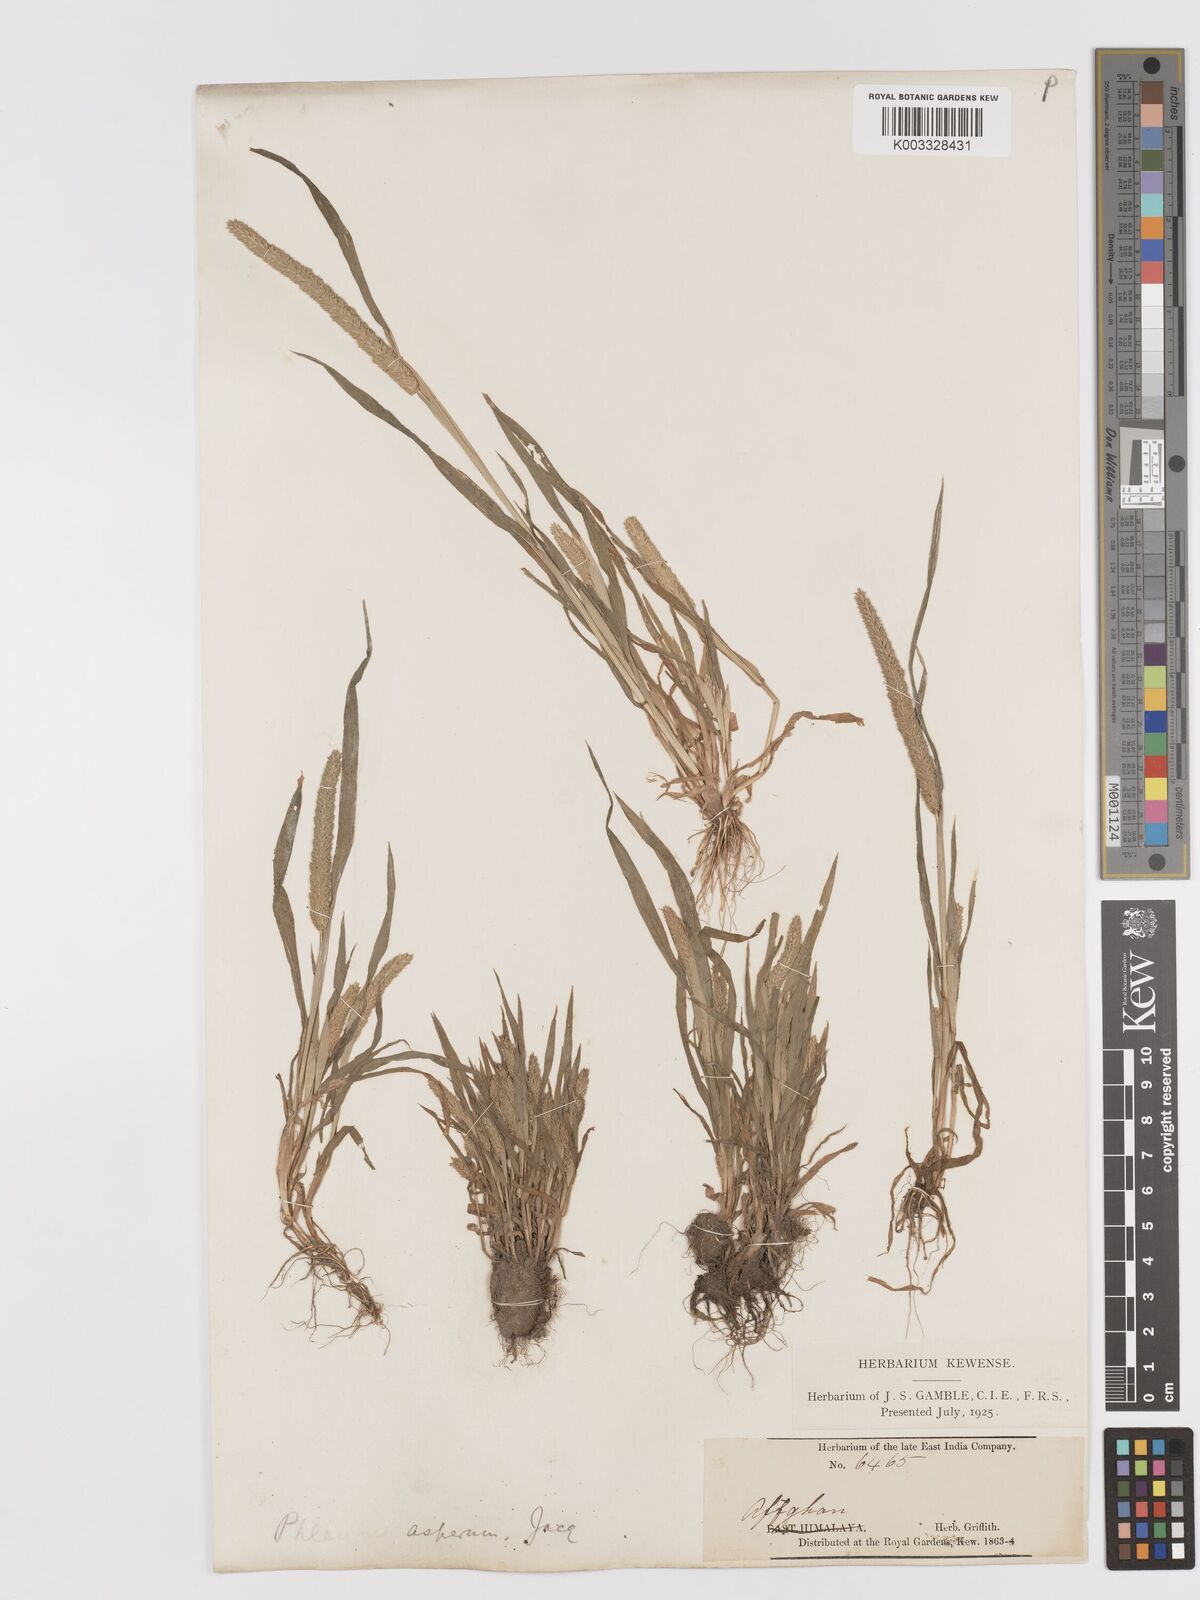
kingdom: Plantae
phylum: Tracheophyta
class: Liliopsida
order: Poales
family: Poaceae
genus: Phleum
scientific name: Phleum paniculatum
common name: British timothy
